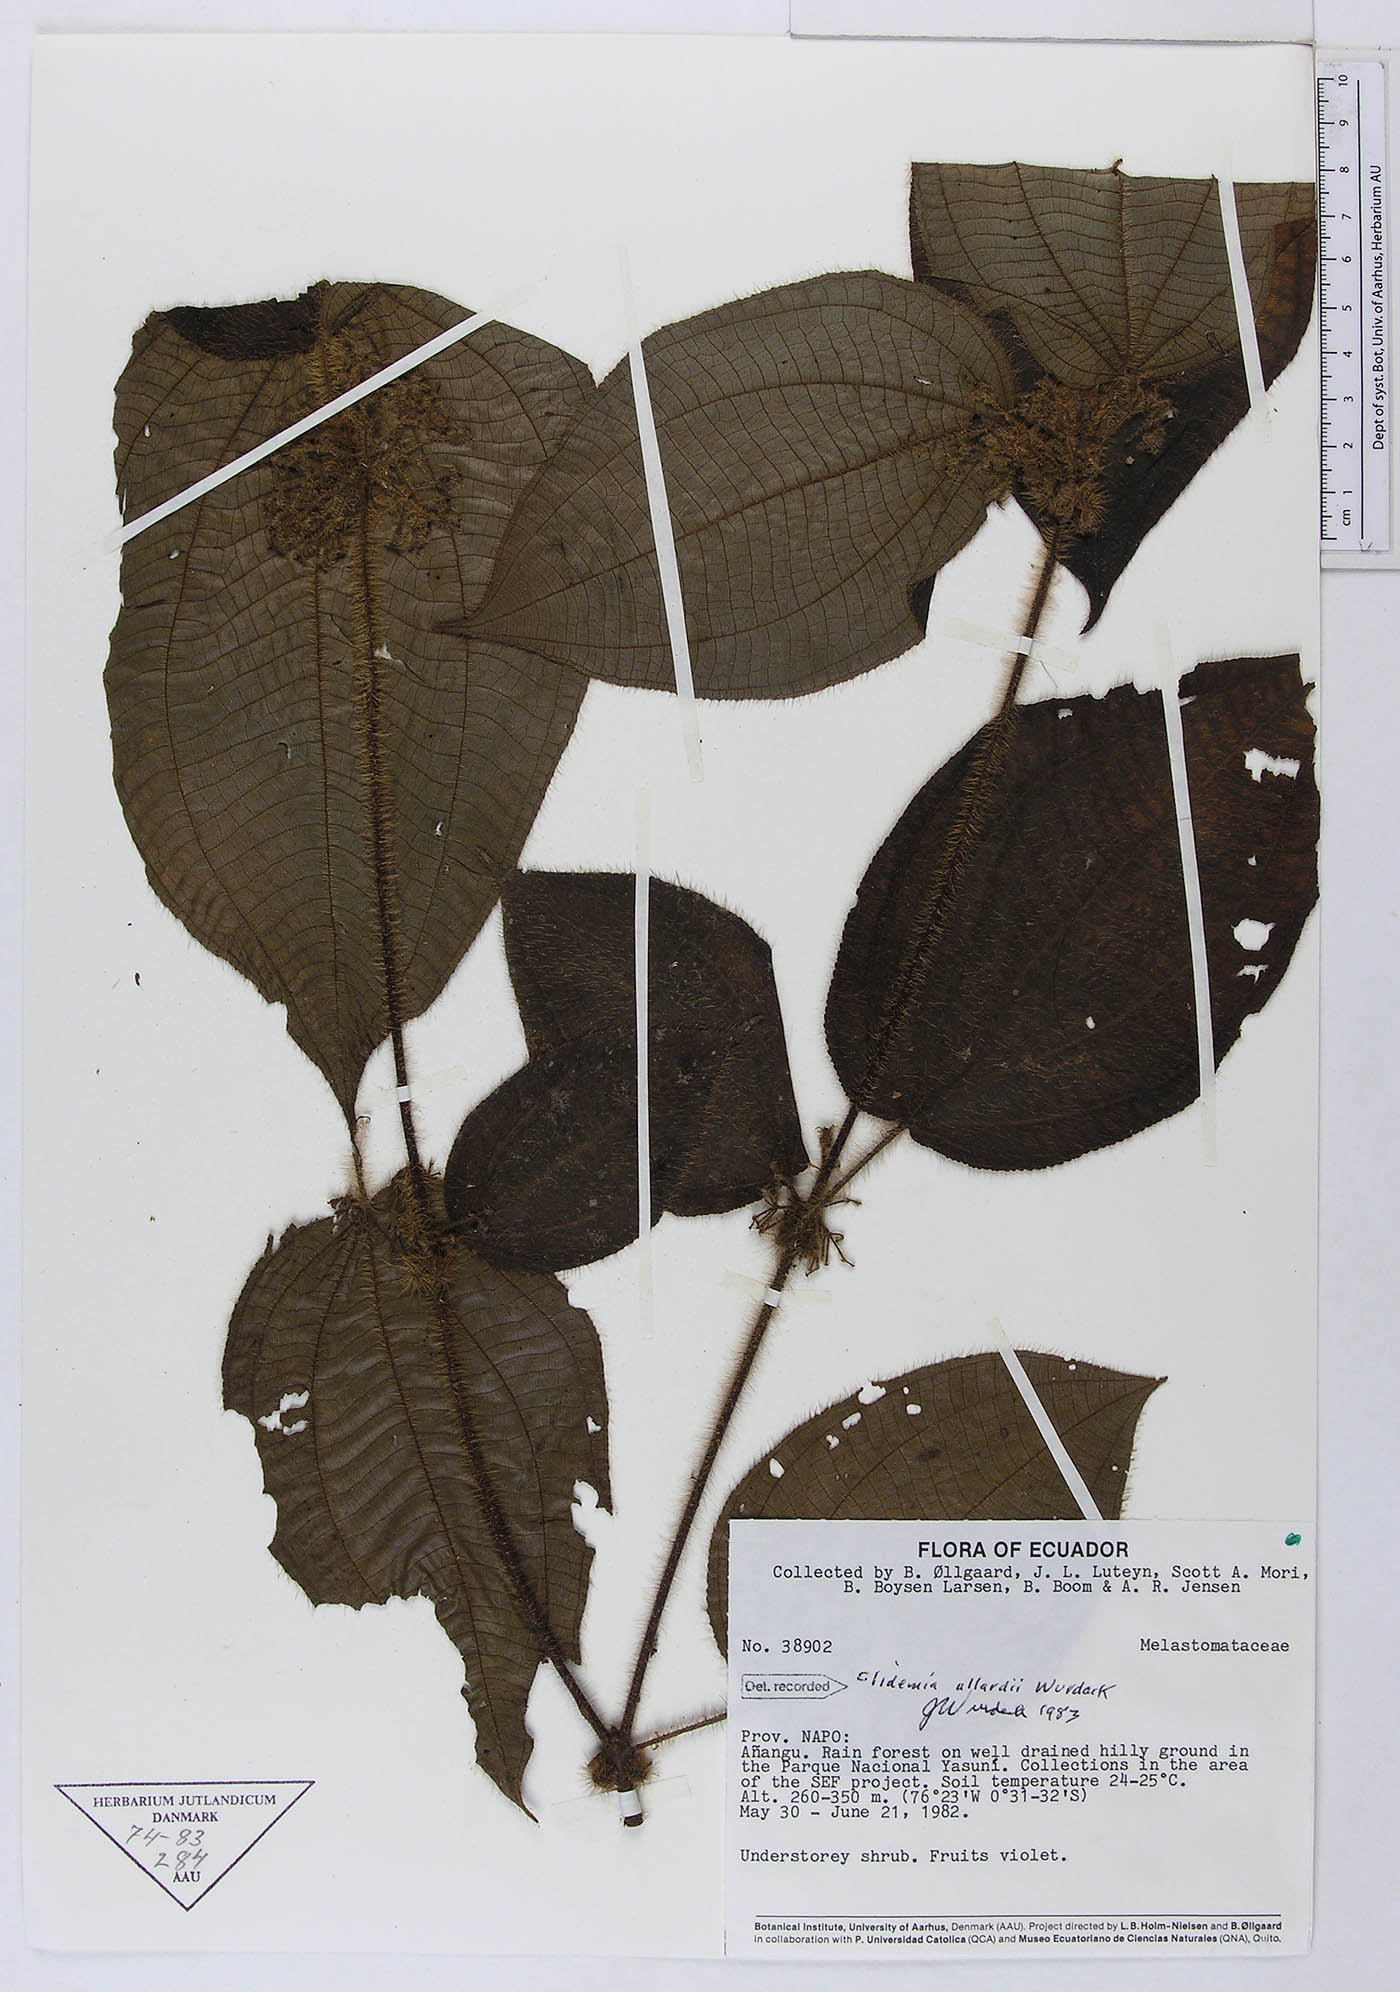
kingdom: Plantae
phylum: Tracheophyta
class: Magnoliopsida
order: Myrtales
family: Melastomataceae
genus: Miconia
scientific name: Miconia allardii
